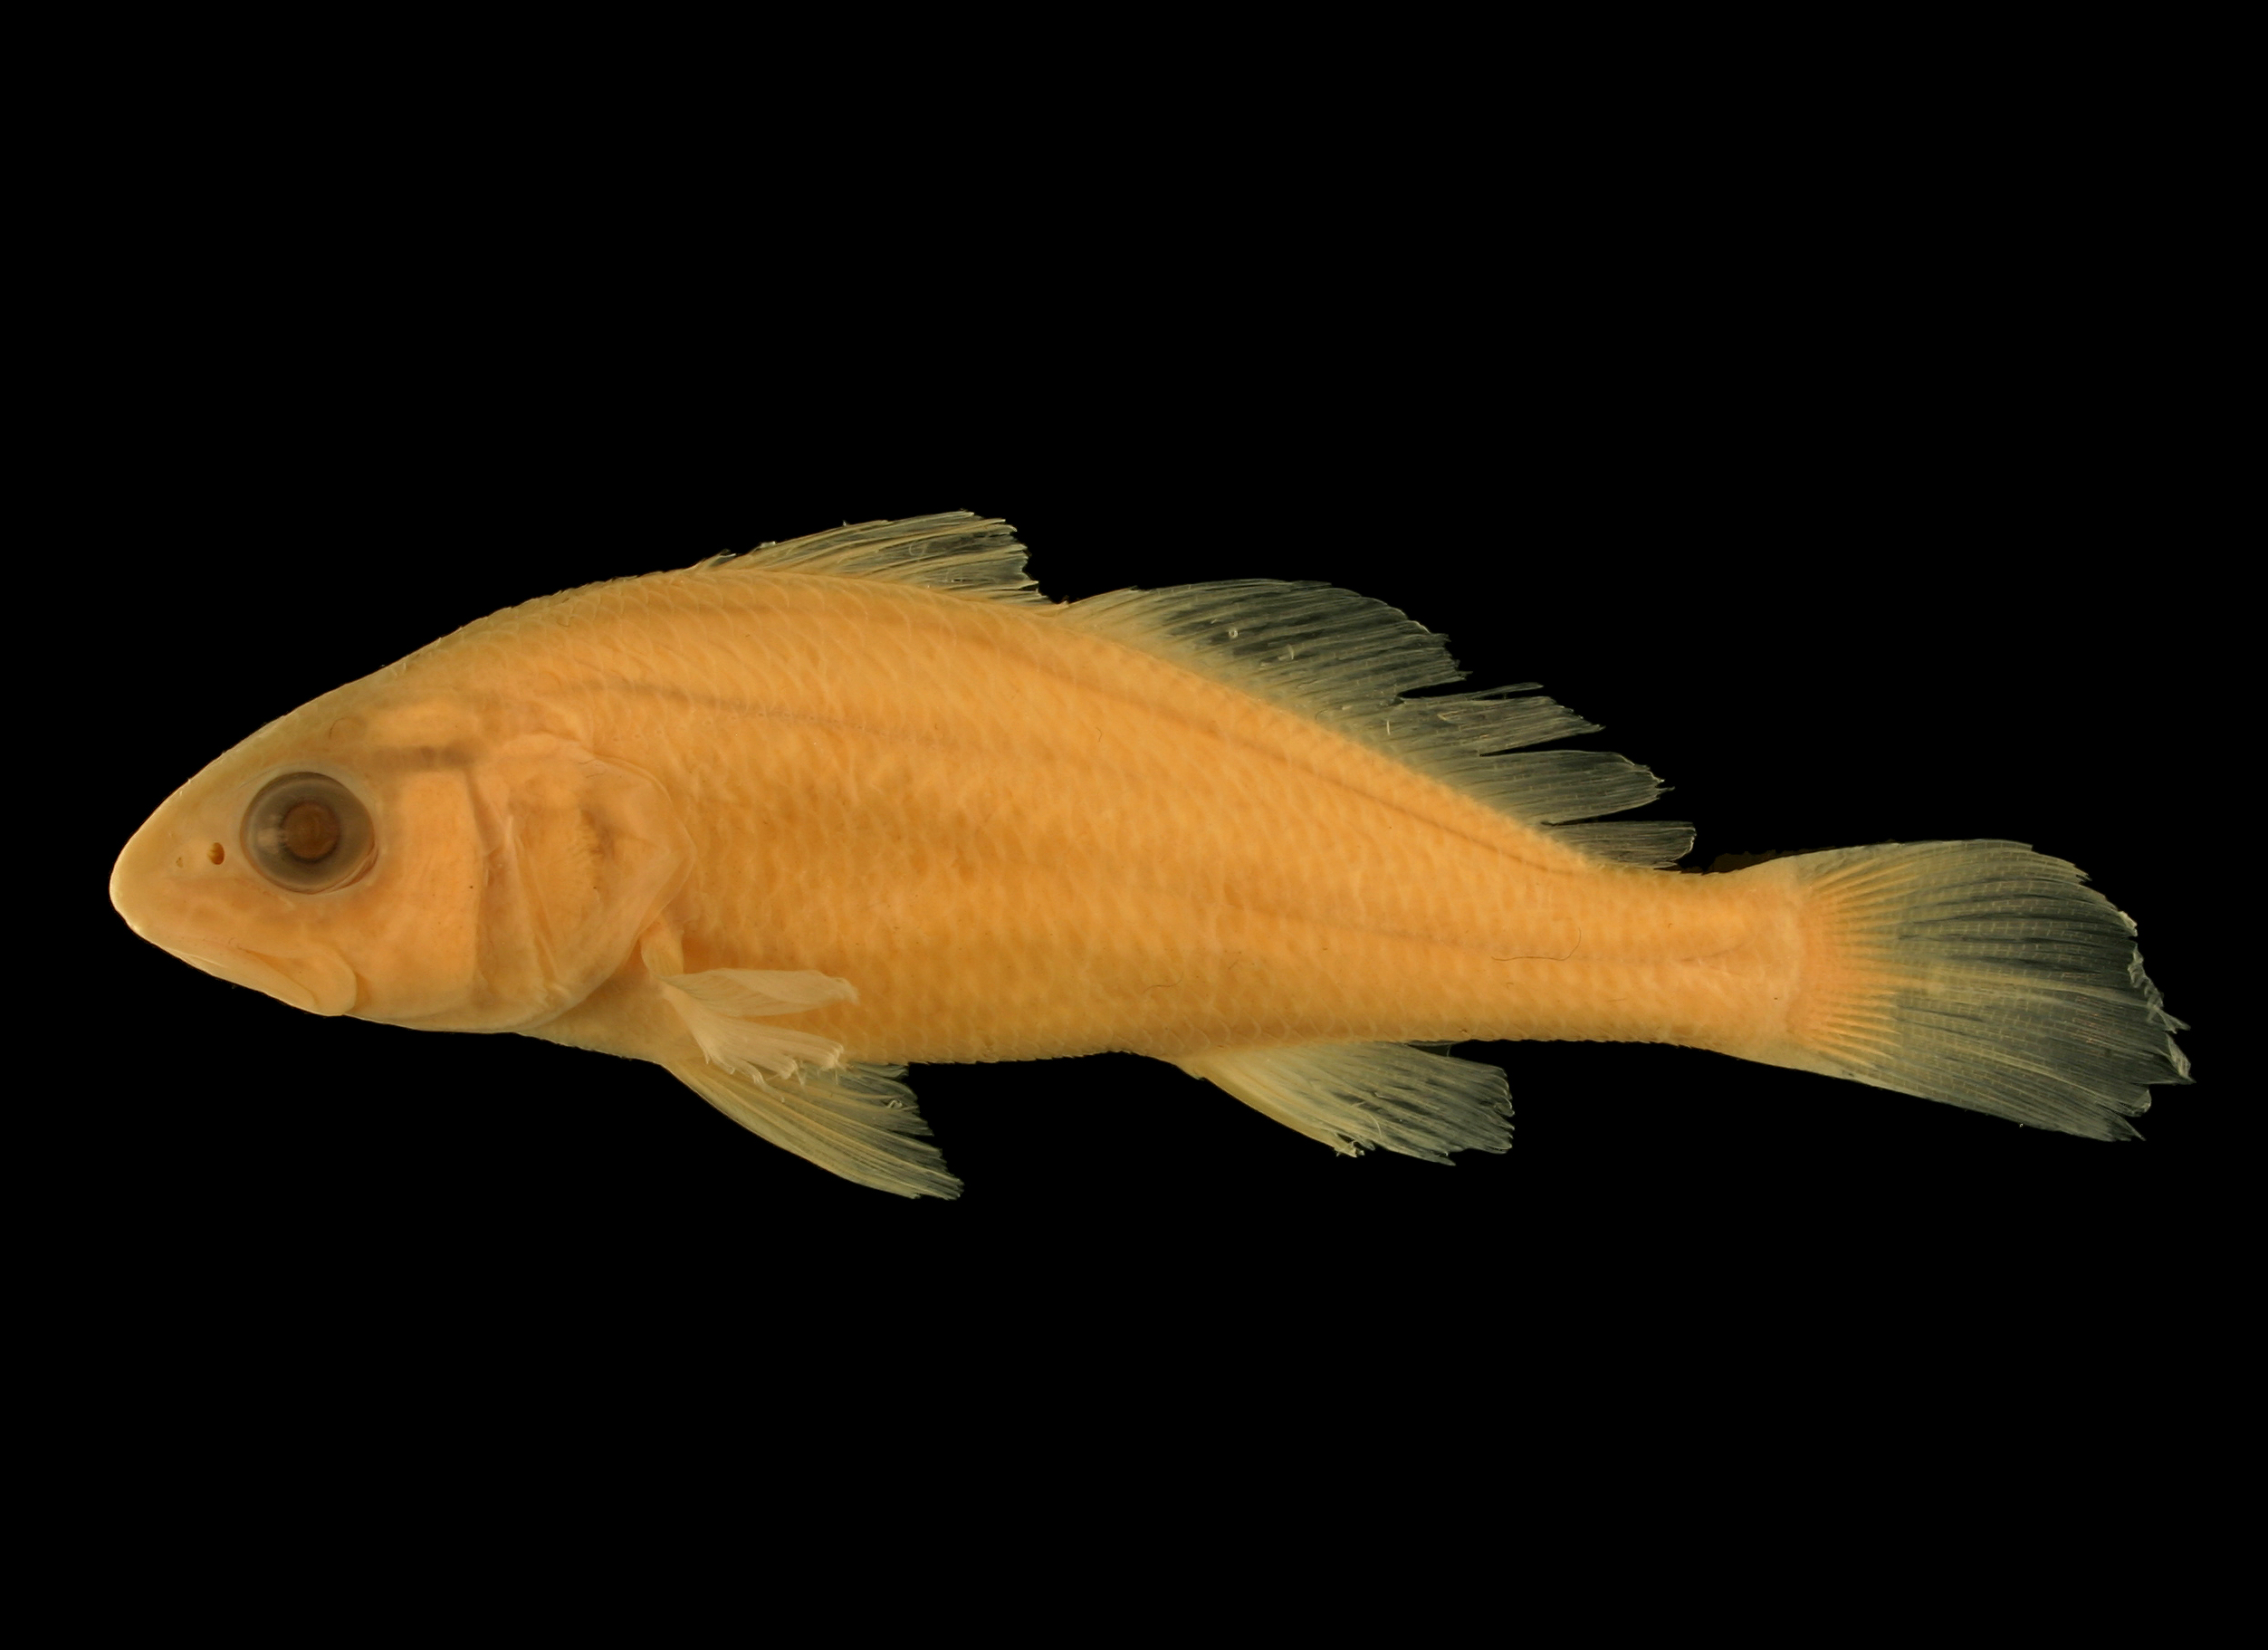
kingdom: Animalia
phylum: Chordata
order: Perciformes
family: Sciaenidae
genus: Sciaenops
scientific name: Sciaenops ocellatus
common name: Red drum
